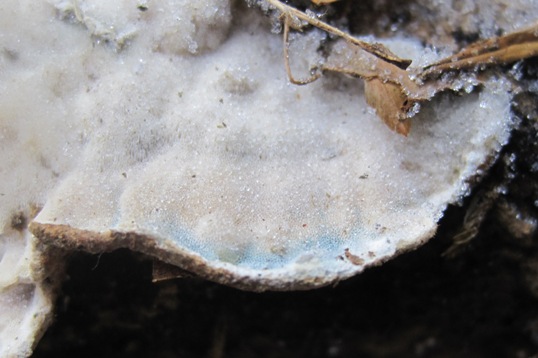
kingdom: Fungi
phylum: Basidiomycota
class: Agaricomycetes
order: Polyporales
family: Incrustoporiaceae
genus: Skeletocutis
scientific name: Skeletocutis nemoralis
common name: stor krystalporesvamp
